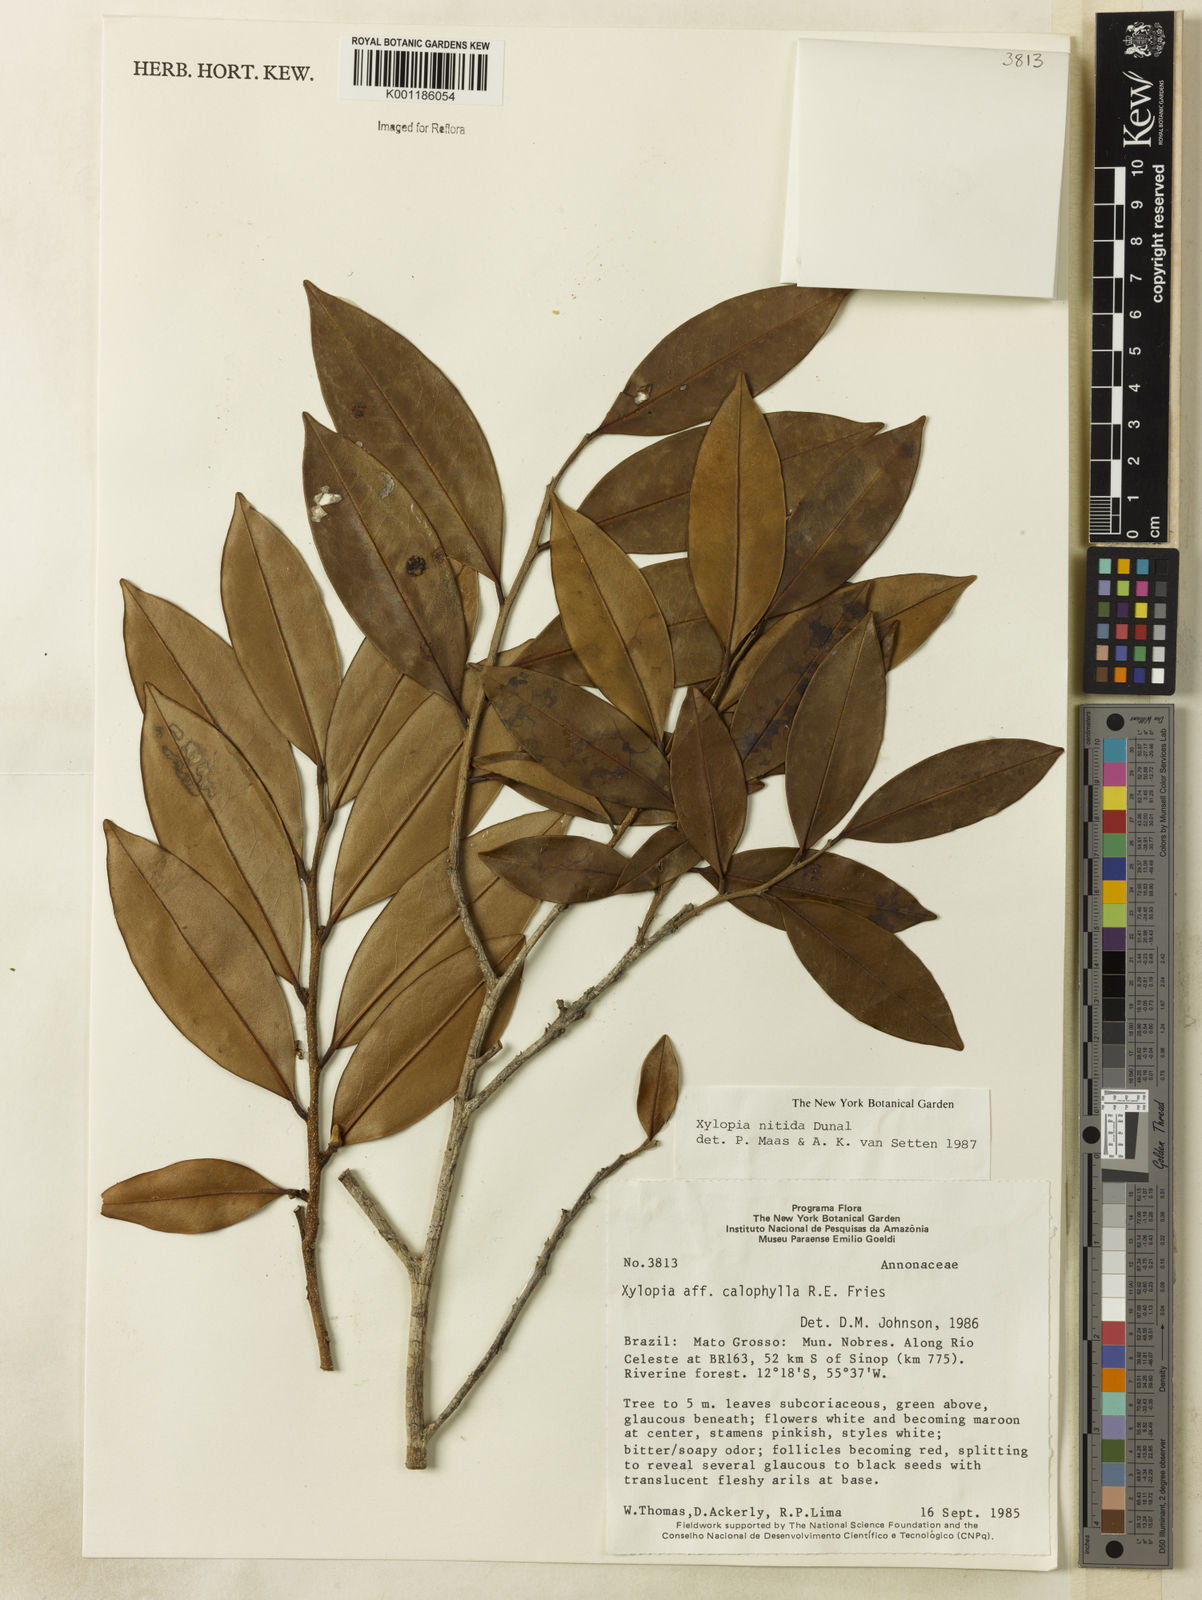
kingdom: Plantae
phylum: Tracheophyta
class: Magnoliopsida
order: Magnoliales
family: Annonaceae
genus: Xylopia
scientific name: Xylopia nitida
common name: White kuyama
